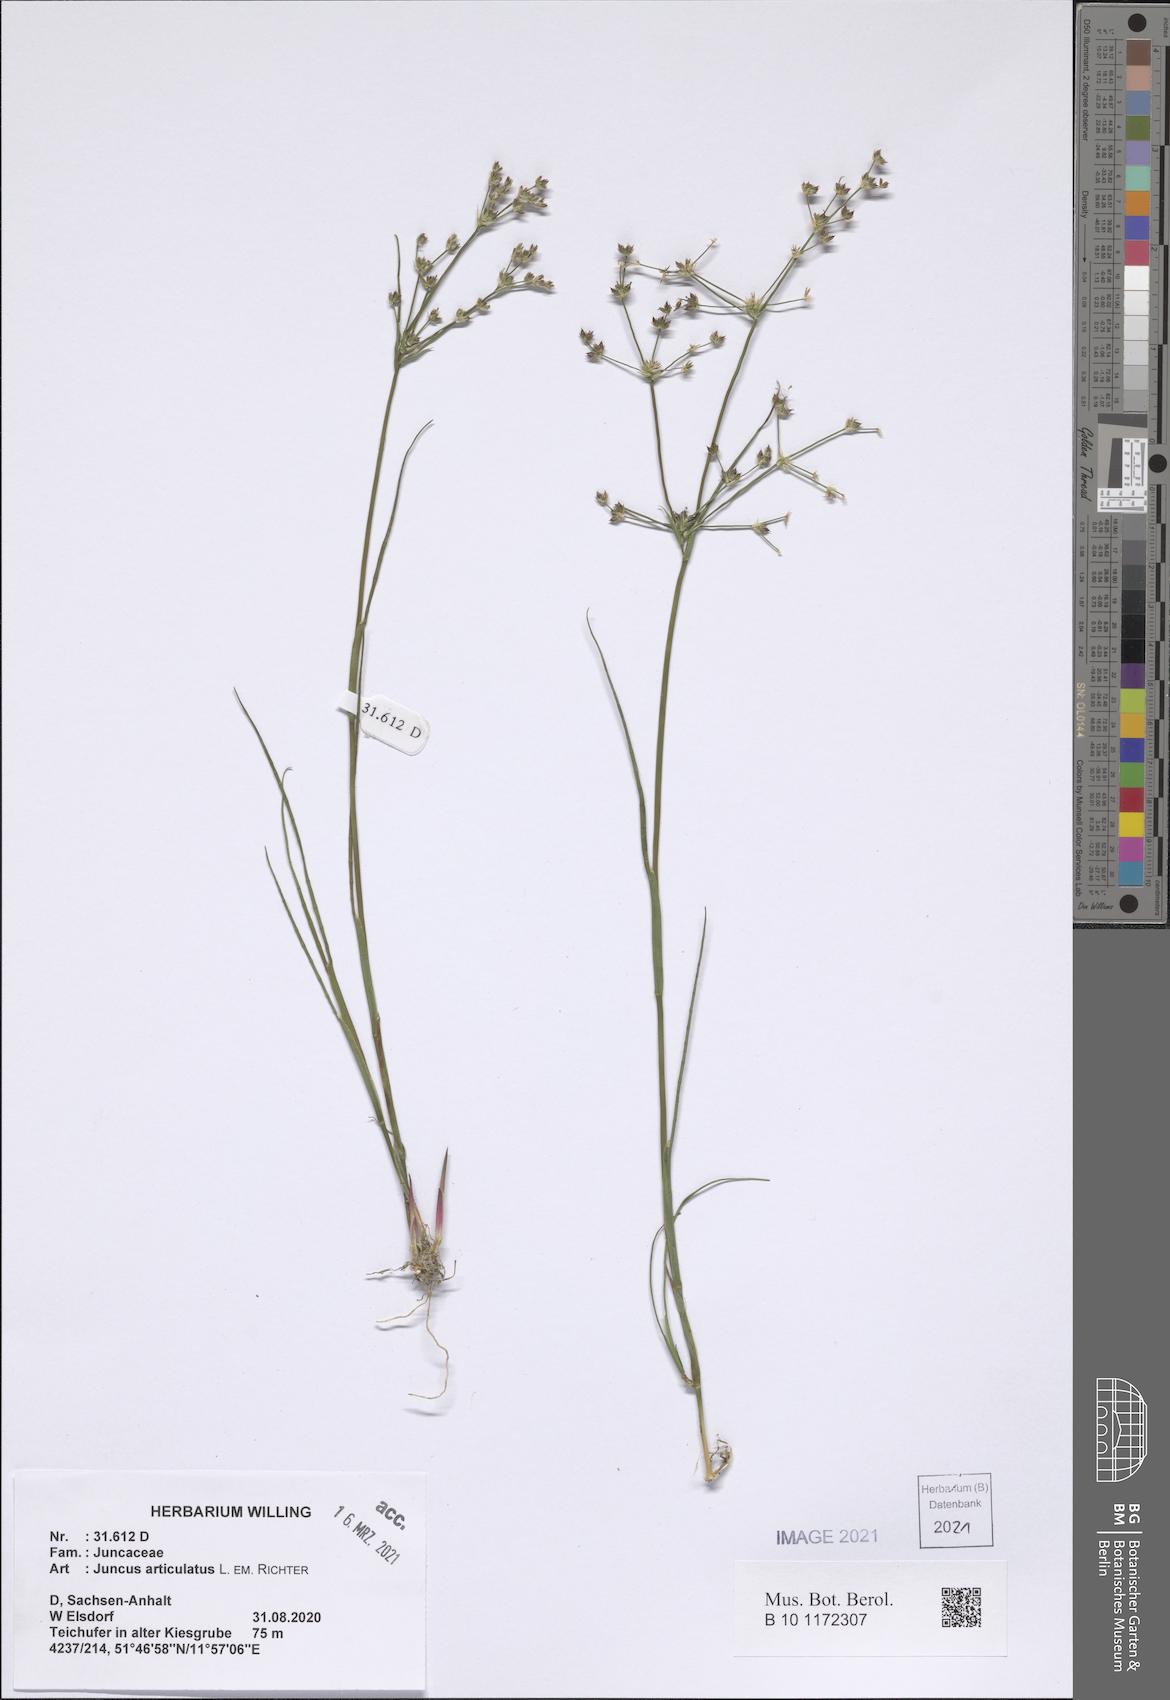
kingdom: Plantae
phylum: Tracheophyta
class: Liliopsida
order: Poales
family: Juncaceae
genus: Juncus
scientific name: Juncus articulatus
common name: Jointed rush
